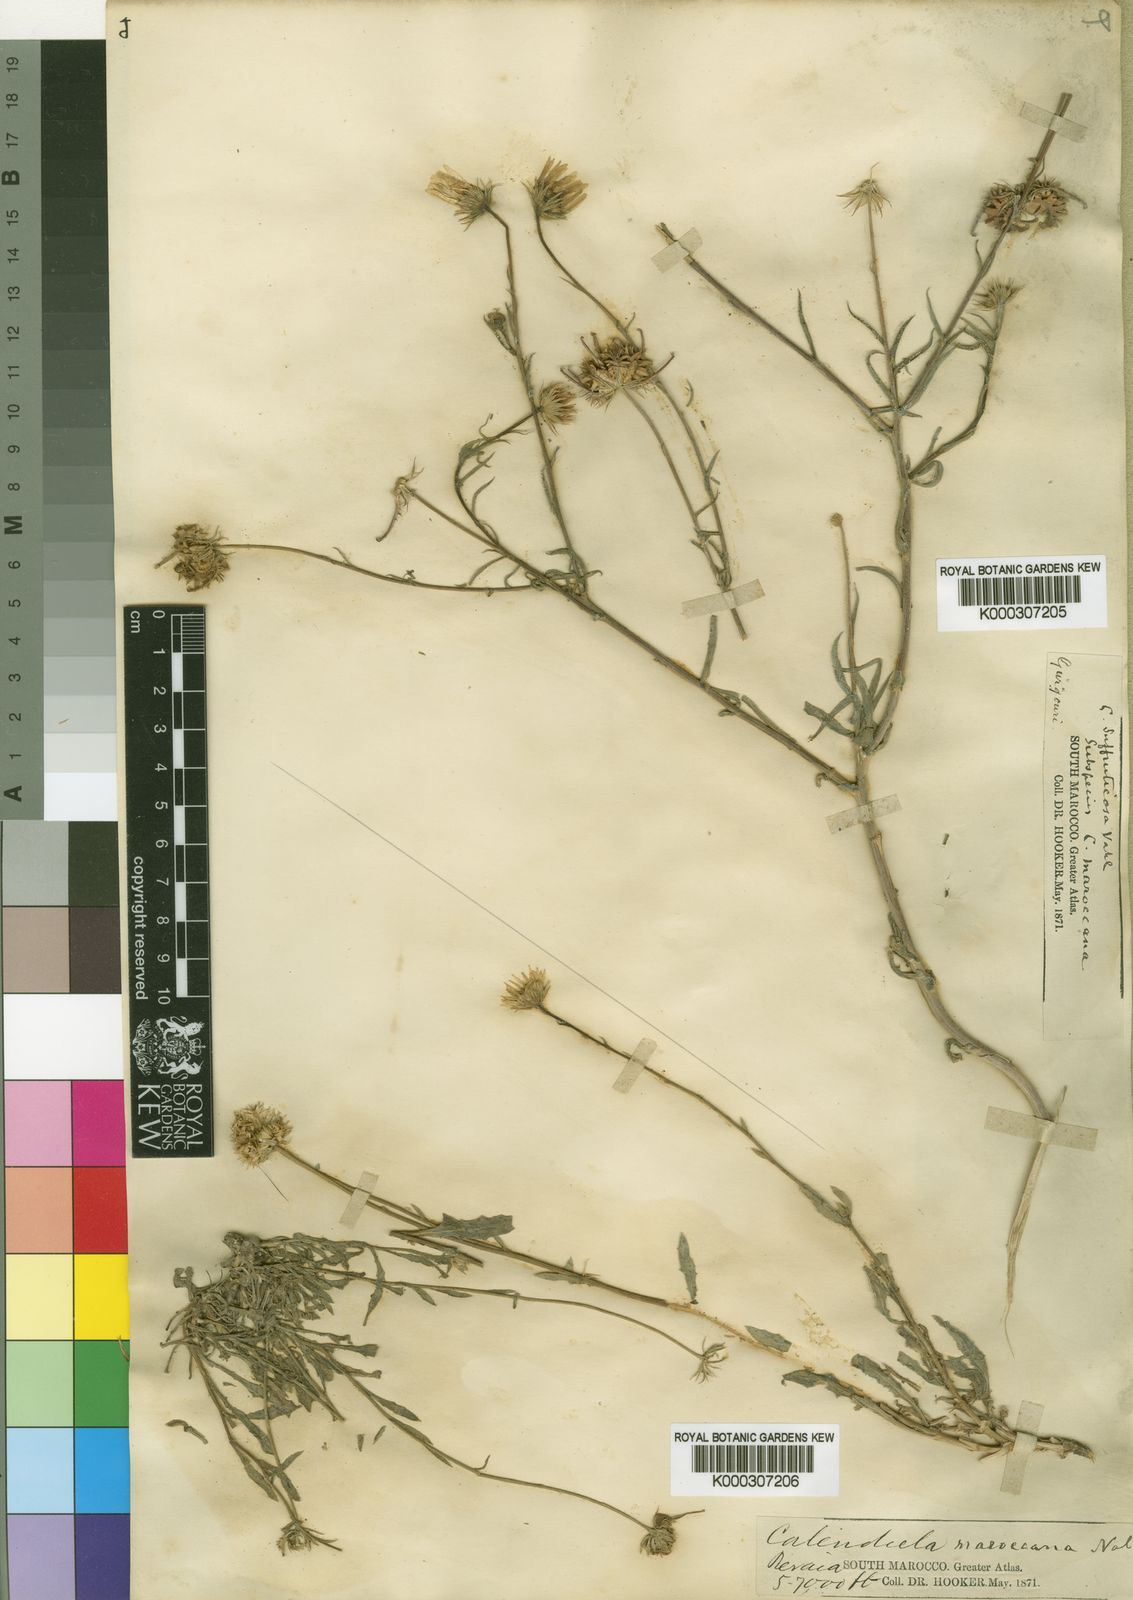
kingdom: Plantae
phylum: Tracheophyta
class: Magnoliopsida
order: Asterales
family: Asteraceae
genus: Calendula
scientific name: Calendula maroccana
